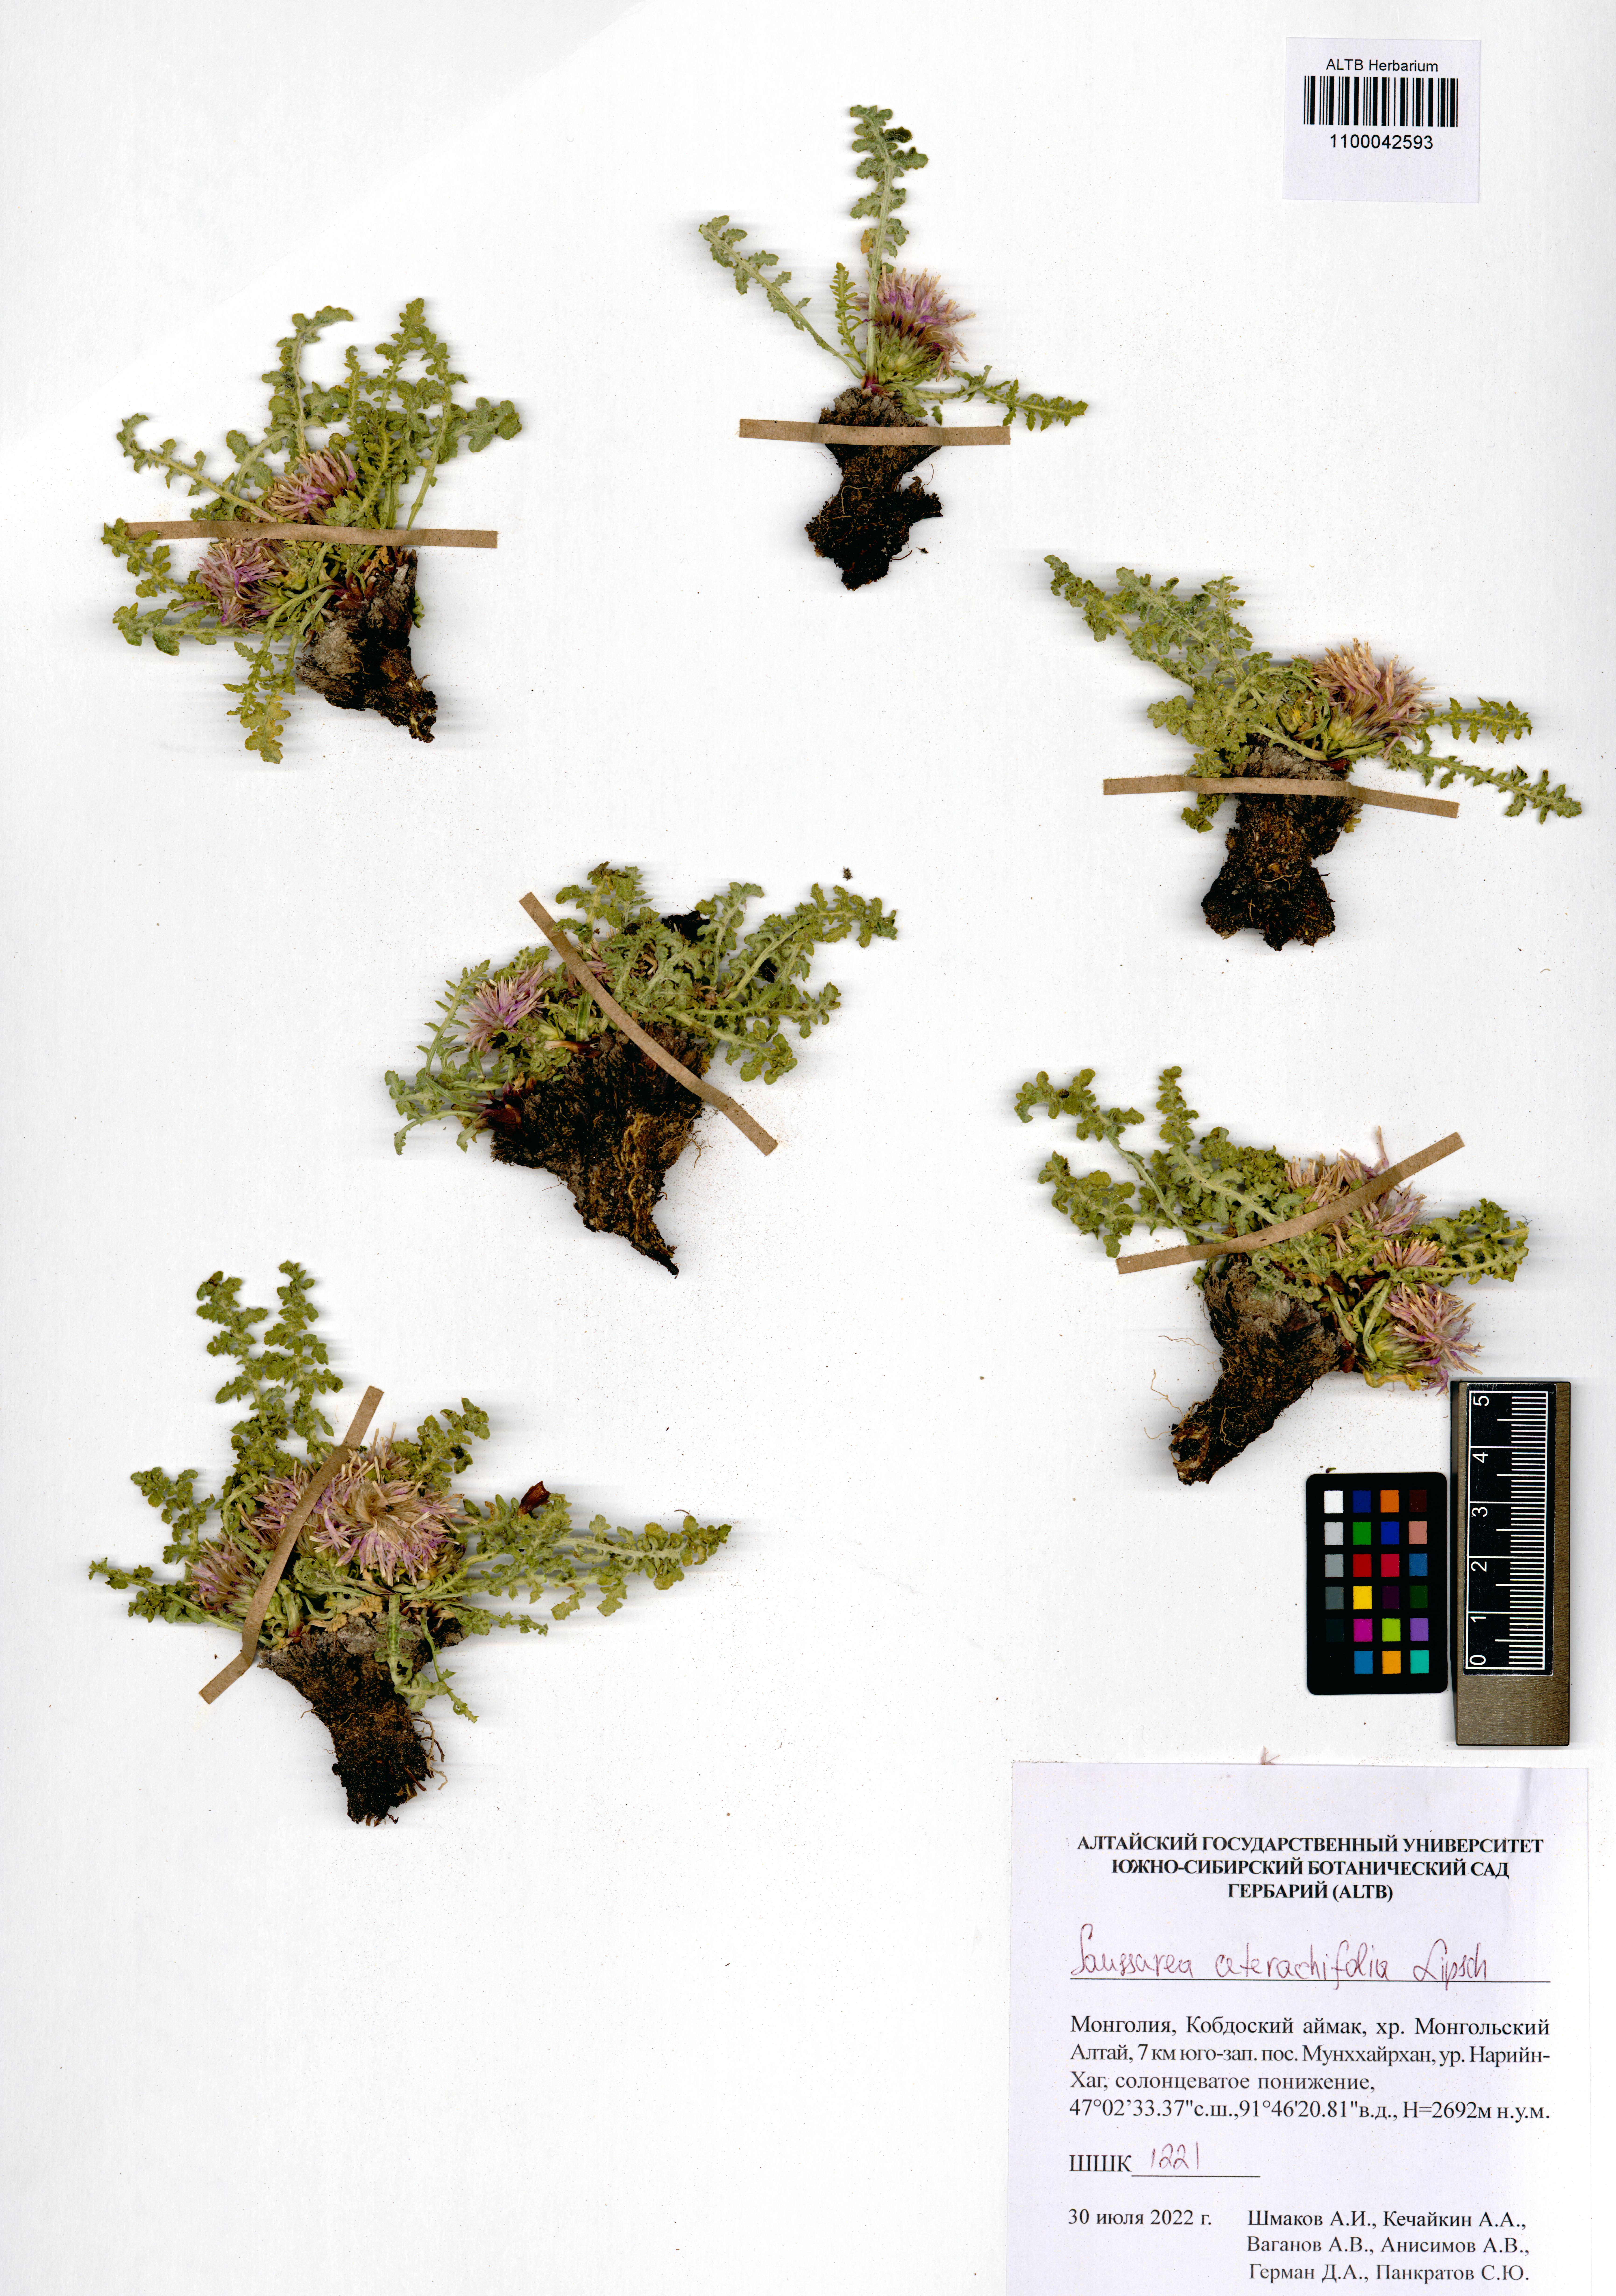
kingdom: Plantae
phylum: Tracheophyta
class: Magnoliopsida
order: Asterales
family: Asteraceae
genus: Saussurea
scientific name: Saussurea ceterachifolia
